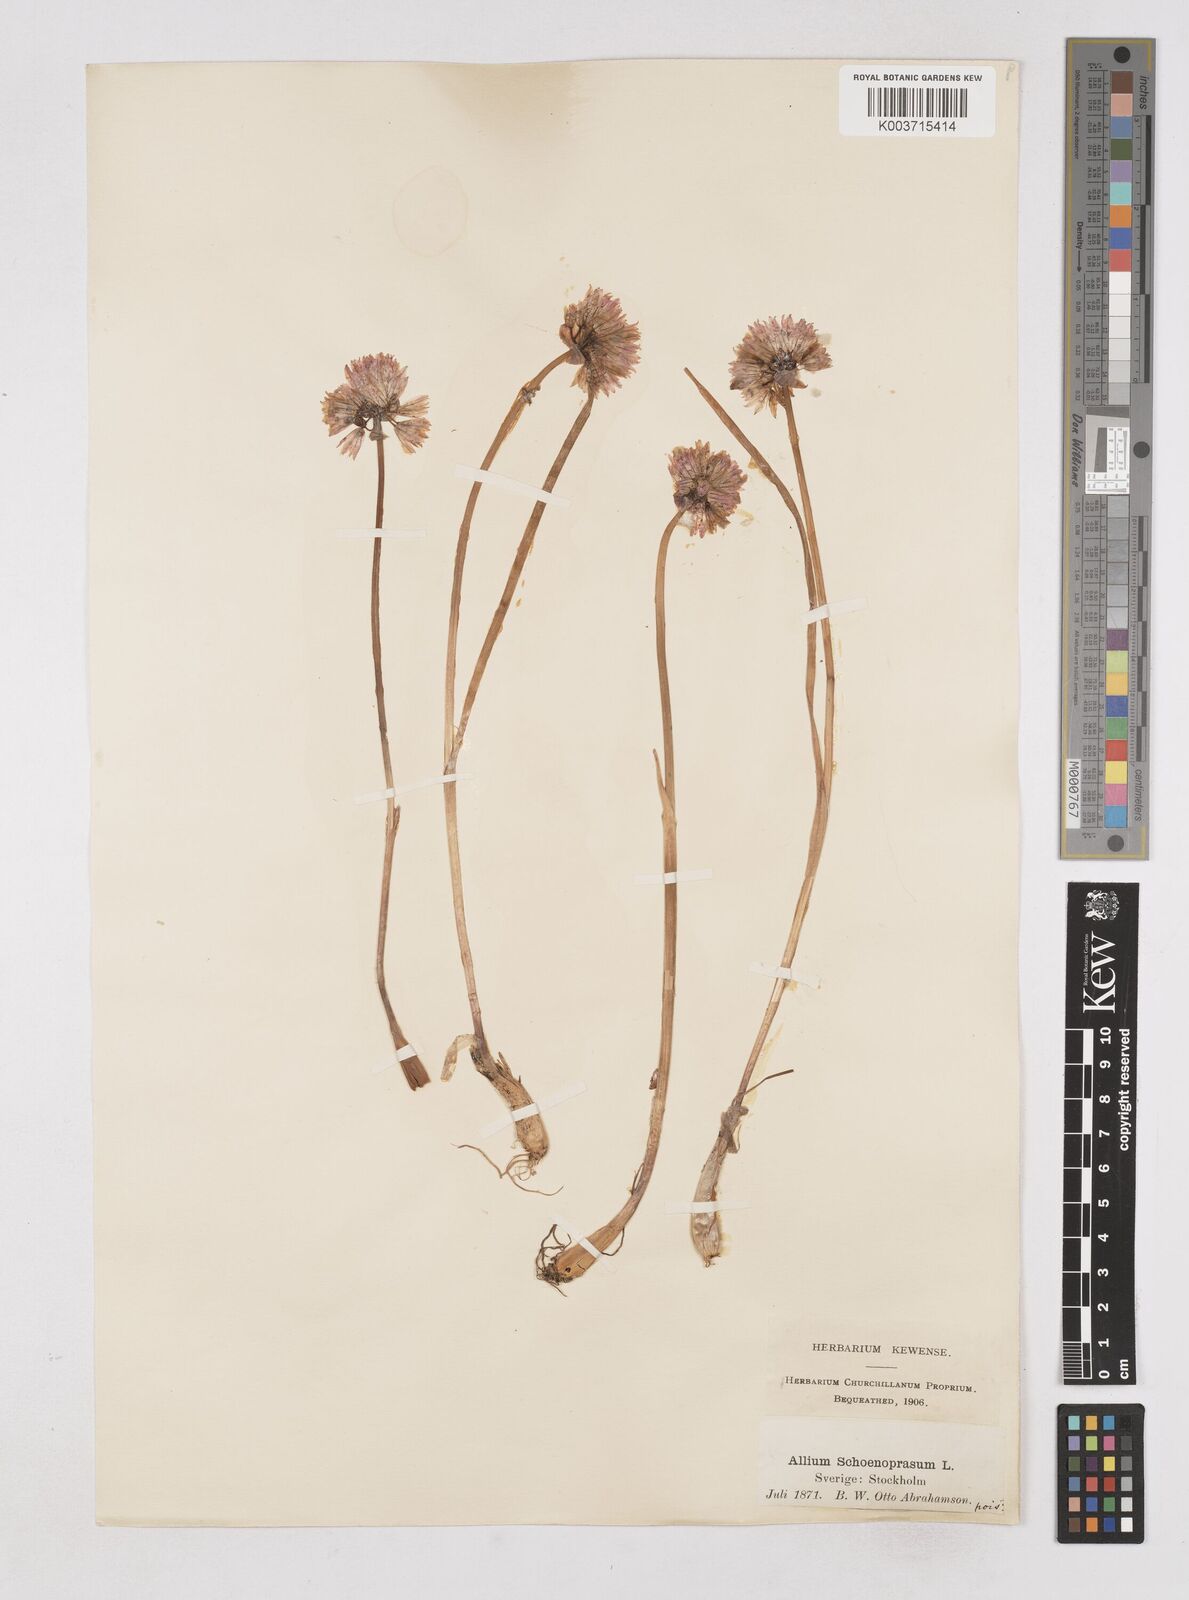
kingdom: Plantae
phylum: Tracheophyta
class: Liliopsida
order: Asparagales
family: Amaryllidaceae
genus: Allium
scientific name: Allium schoenoprasum
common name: Chives
